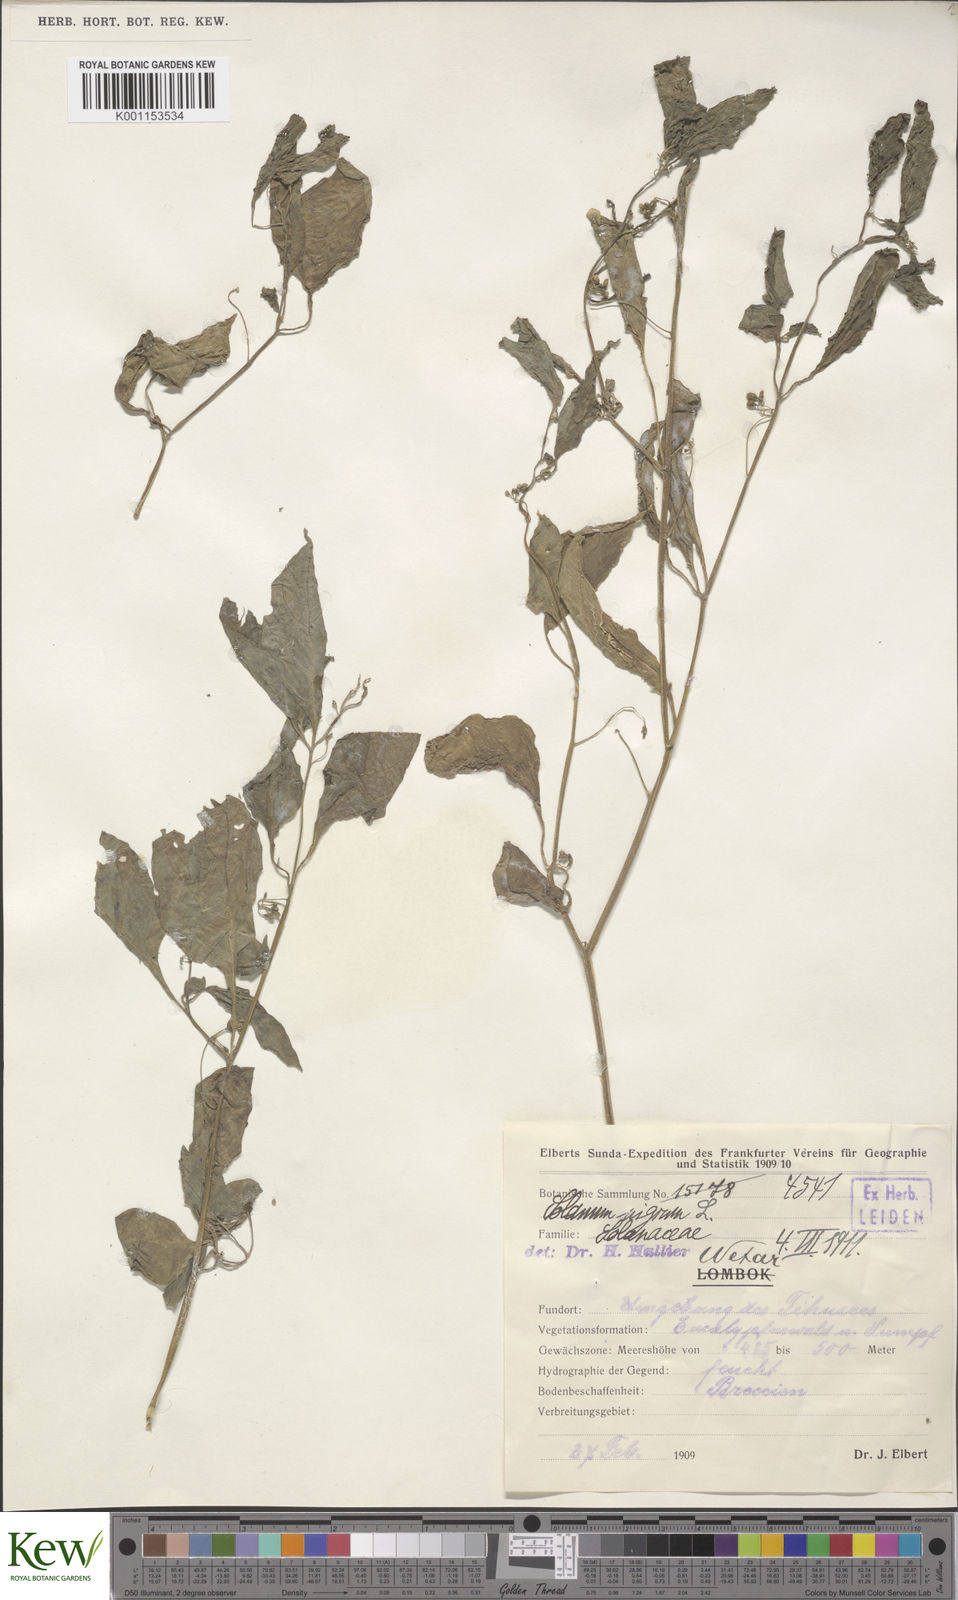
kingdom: Plantae
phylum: Tracheophyta
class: Magnoliopsida
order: Solanales
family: Solanaceae
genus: Solanum
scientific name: Solanum americanum
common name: American black nightshade
